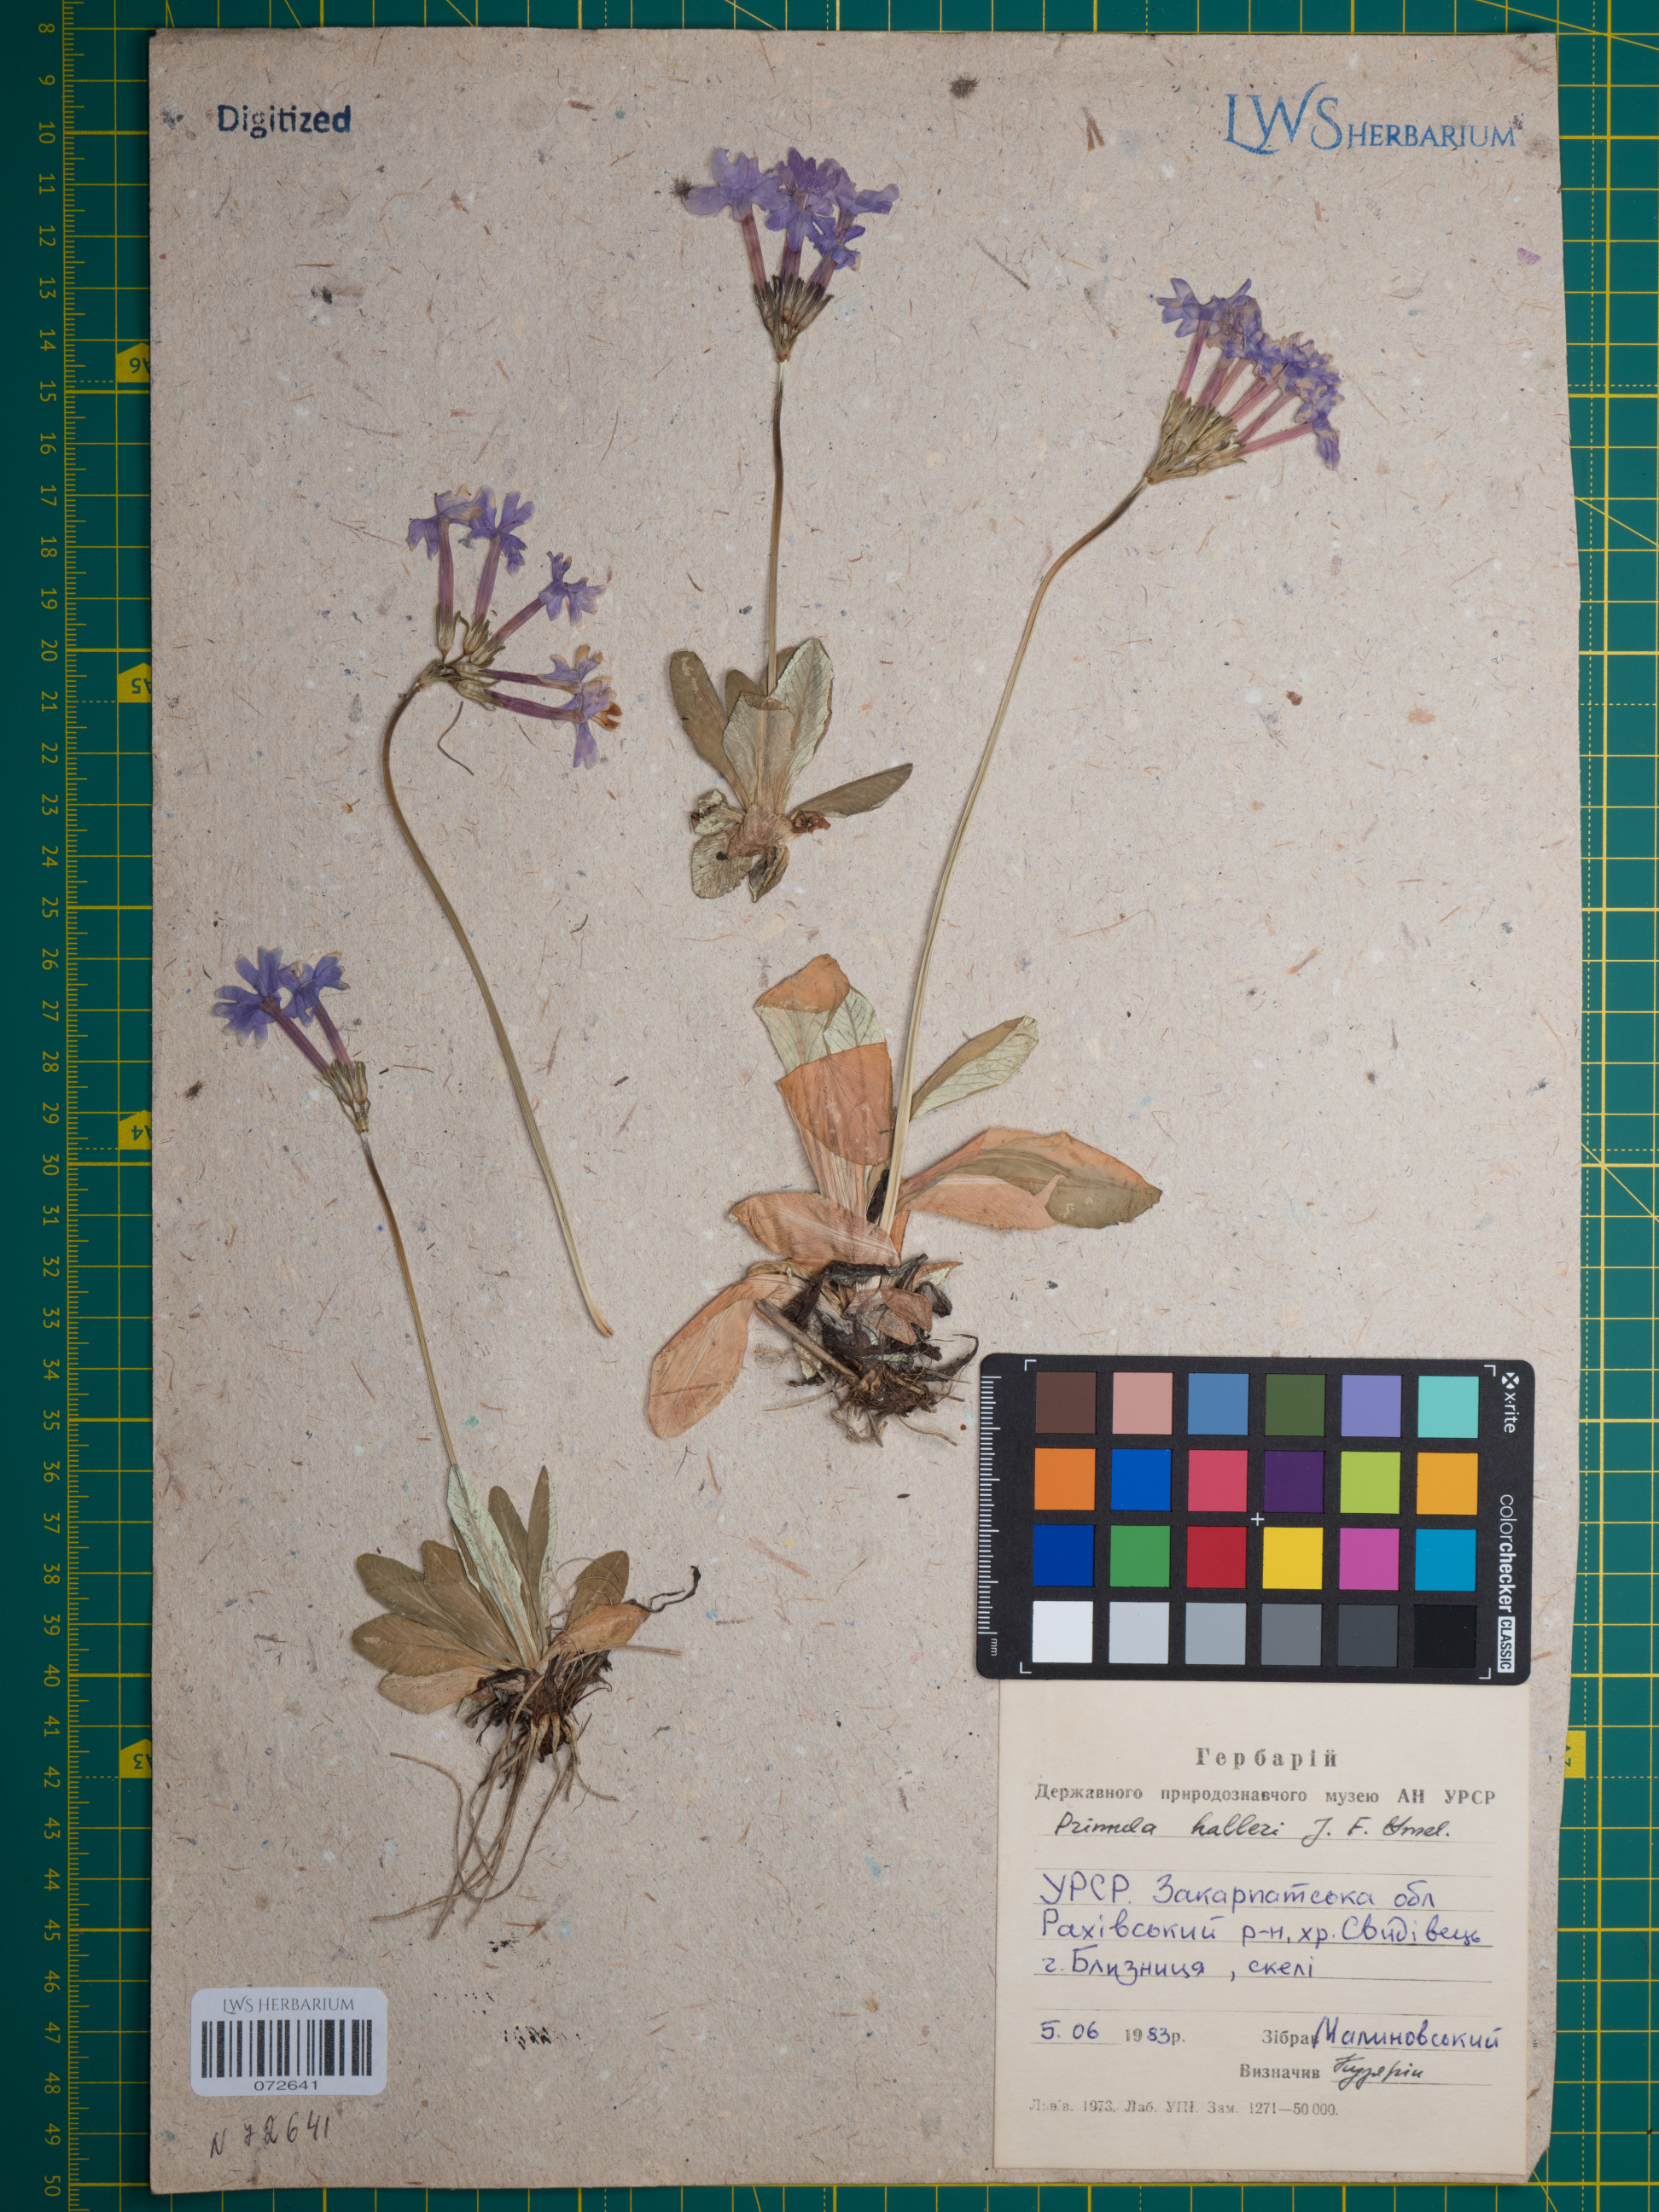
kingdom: Plantae
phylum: Tracheophyta
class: Magnoliopsida
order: Ericales
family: Primulaceae
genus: Primula
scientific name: Primula halleri
